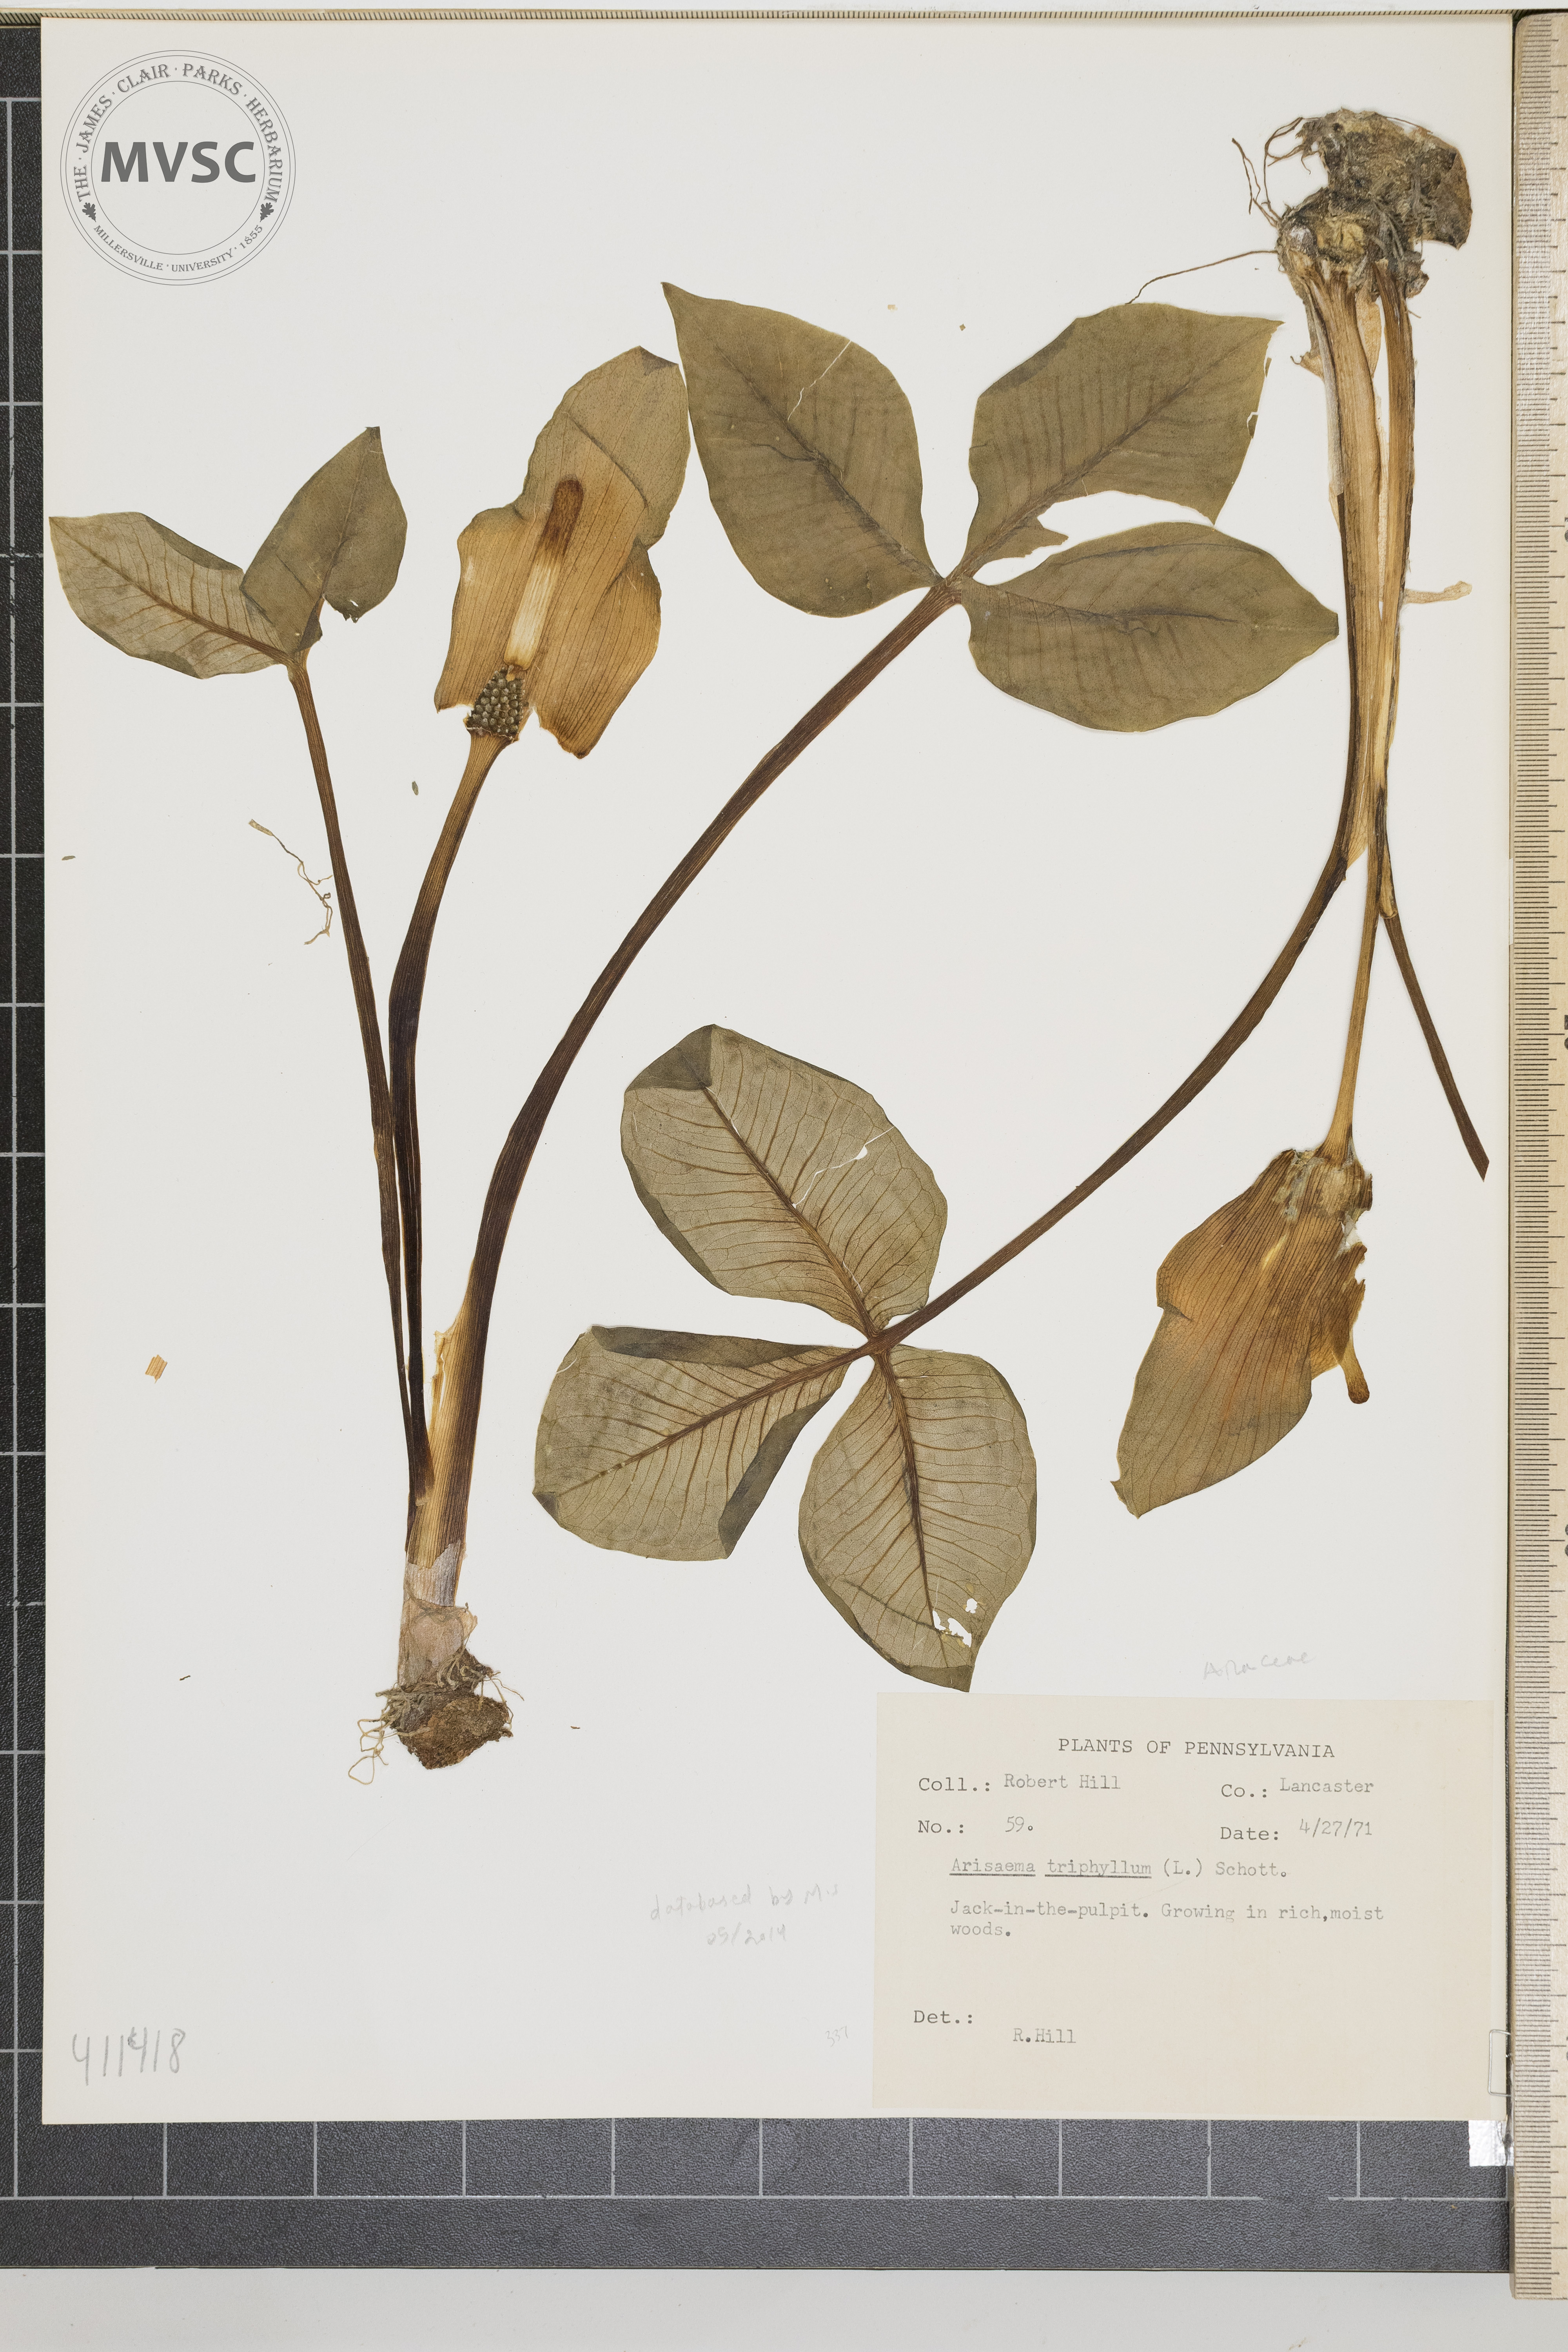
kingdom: Plantae
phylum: Tracheophyta
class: Liliopsida
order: Alismatales
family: Araceae
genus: Arisaema
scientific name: Arisaema triphyllum
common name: Jack-in-the-pulpit
